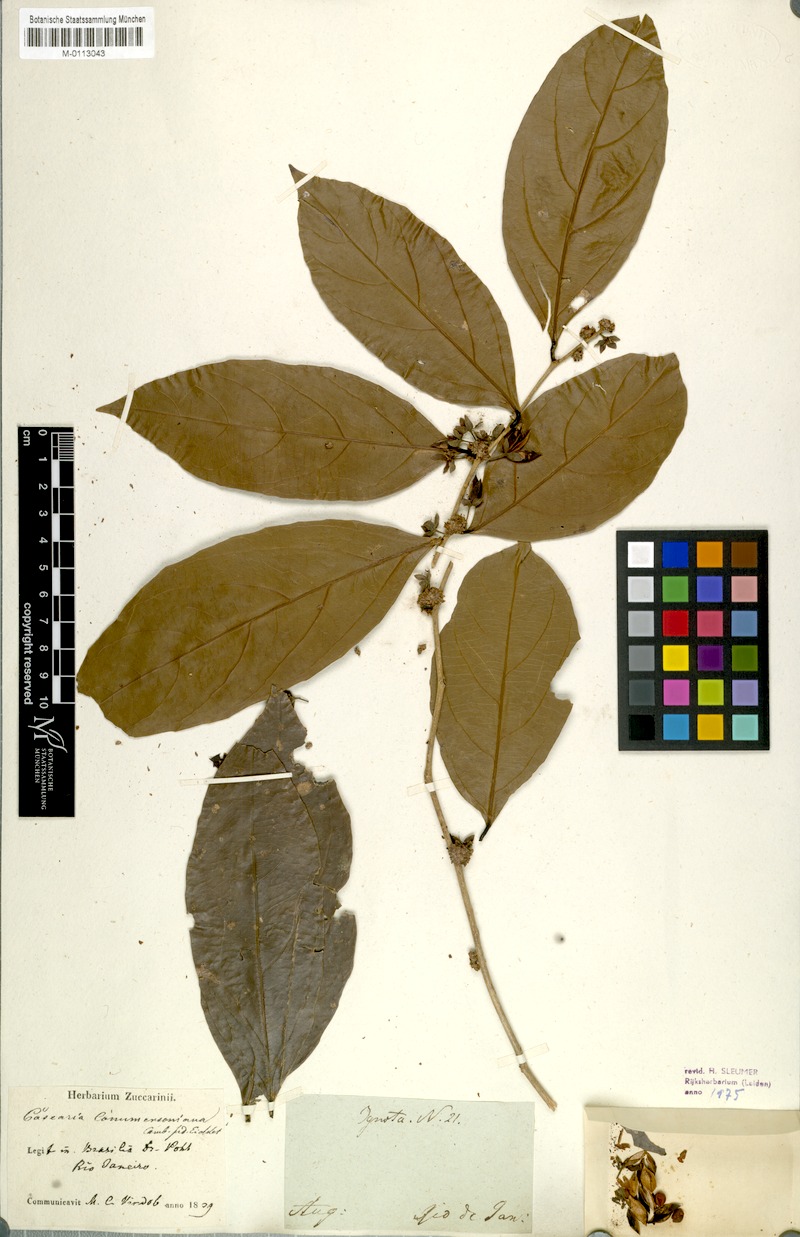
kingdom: Plantae
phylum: Tracheophyta
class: Magnoliopsida
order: Malpighiales
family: Salicaceae
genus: Piparea
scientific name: Piparea dentata
